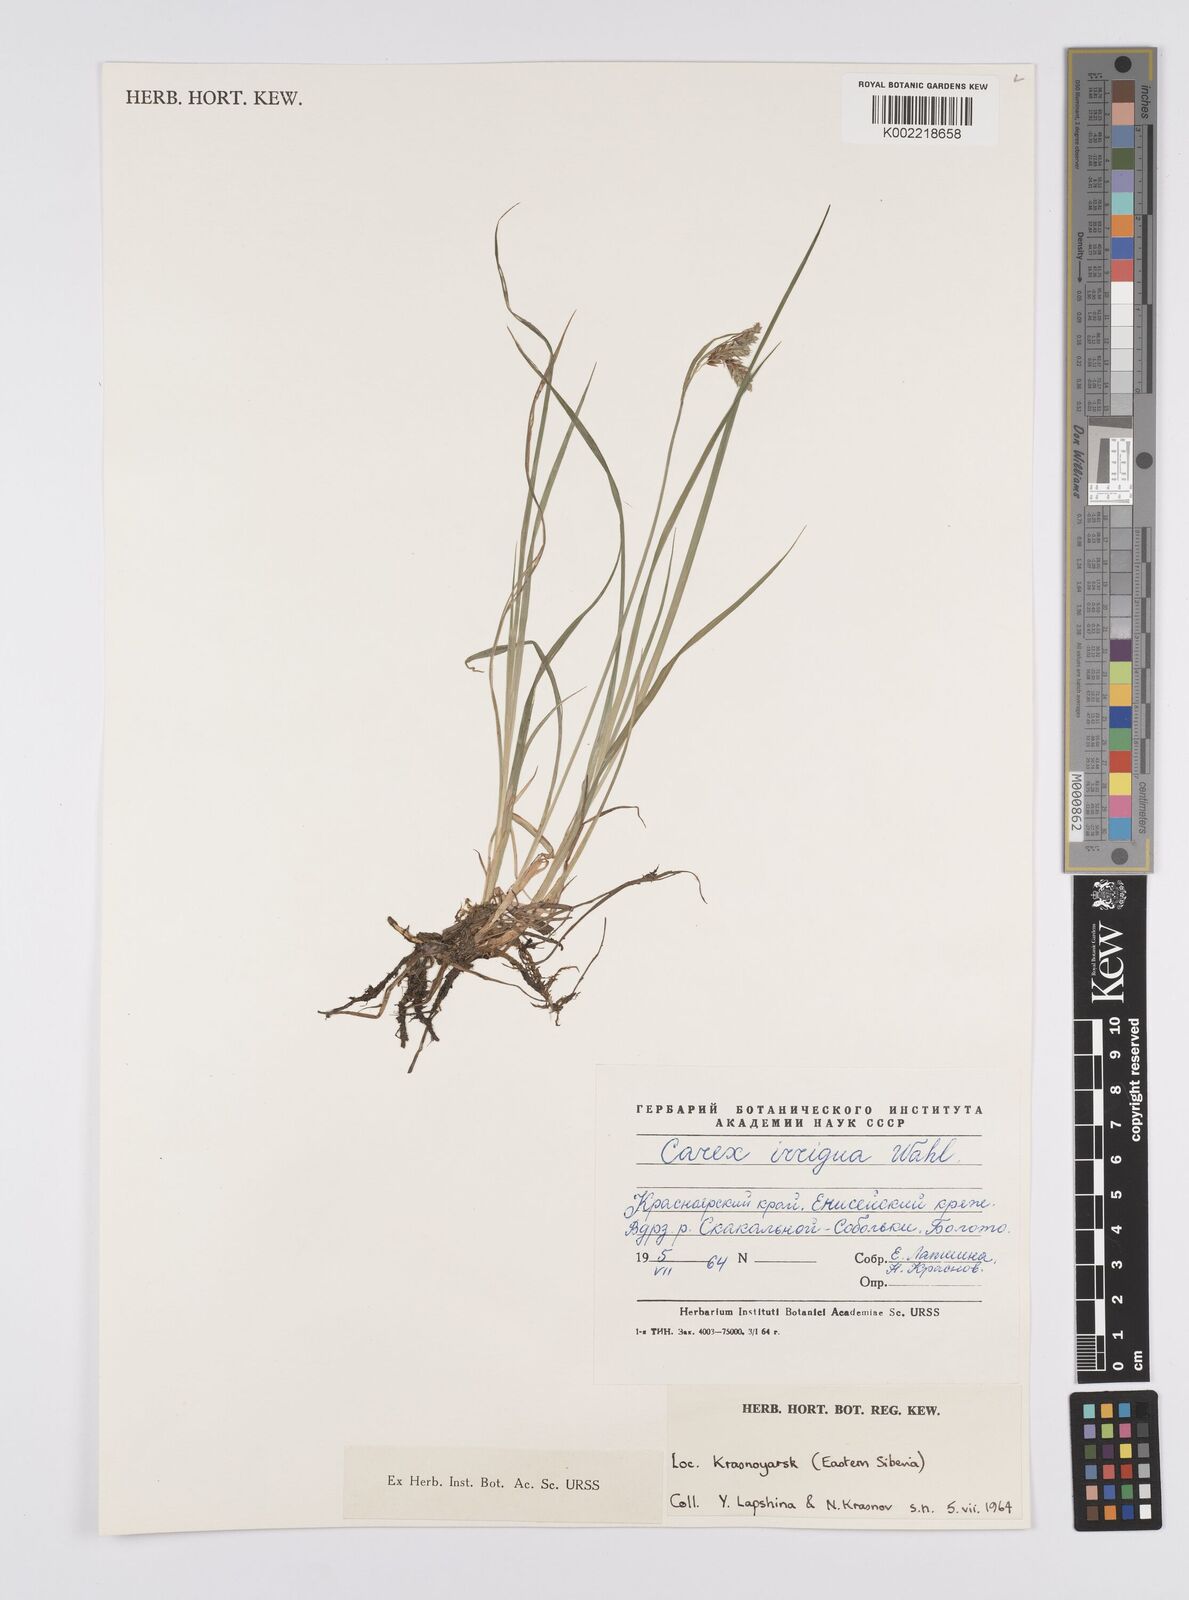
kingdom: Plantae
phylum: Tracheophyta
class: Liliopsida
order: Poales
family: Cyperaceae
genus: Carex
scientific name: Carex livida
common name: Livid sedge
